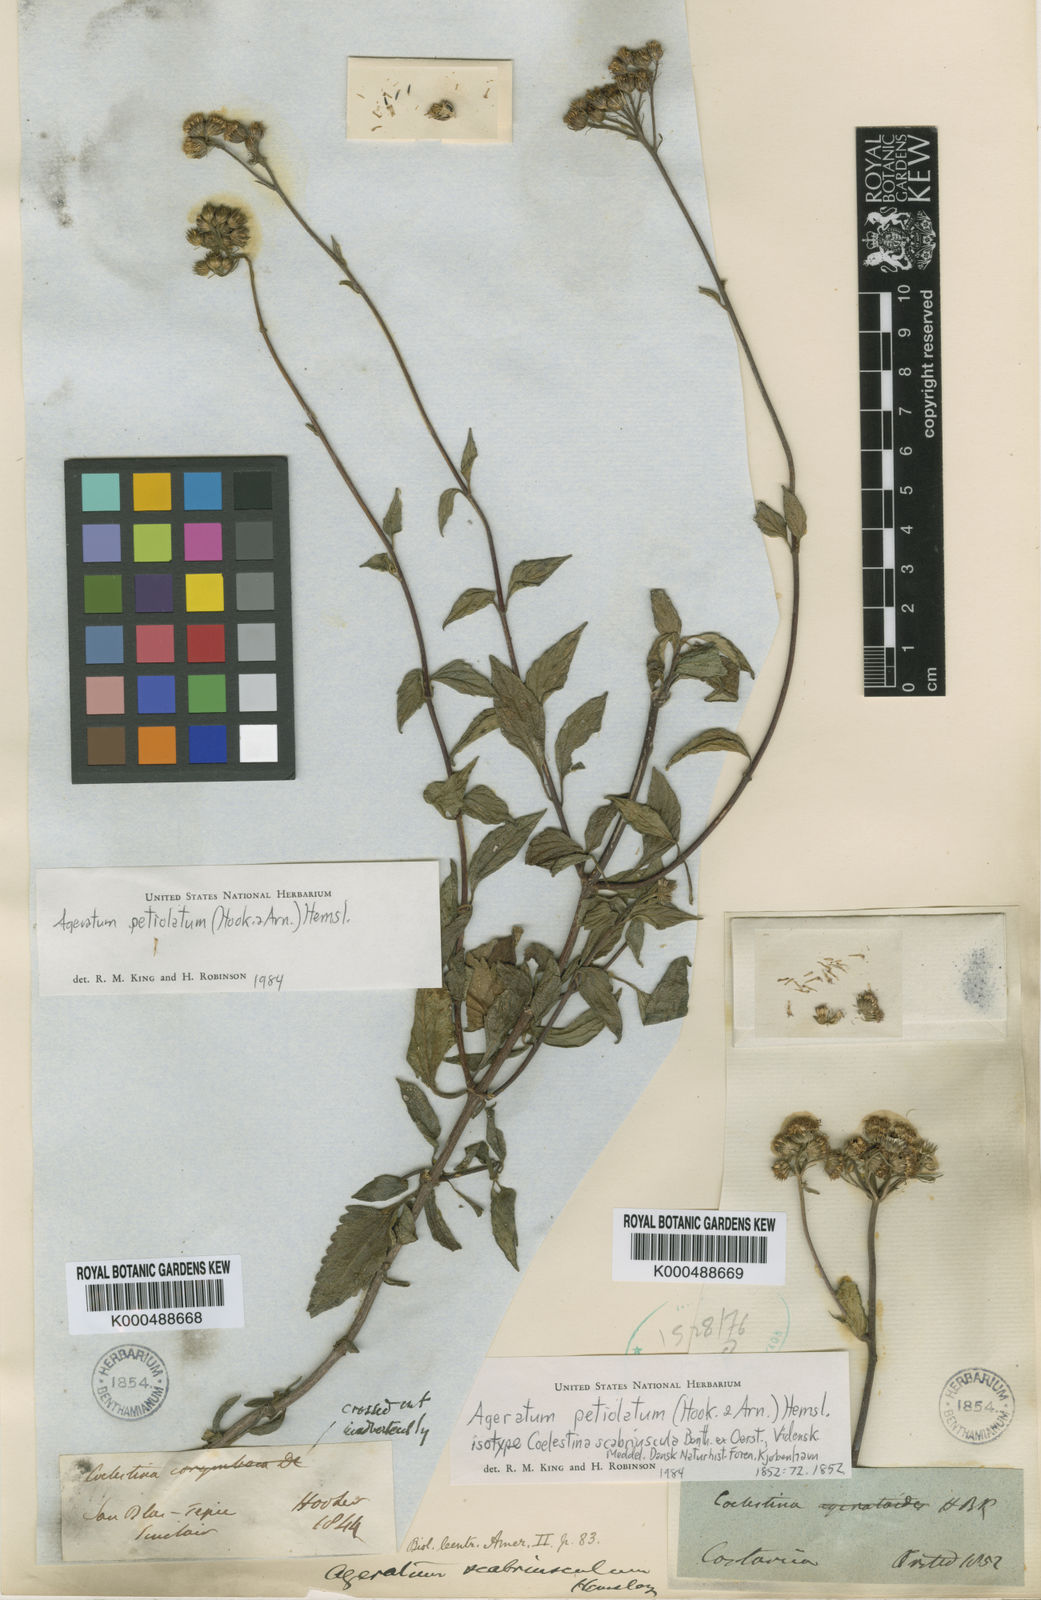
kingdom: Plantae
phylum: Tracheophyta
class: Magnoliopsida
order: Asterales
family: Asteraceae
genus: Ageratum
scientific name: Ageratum petiolatum
